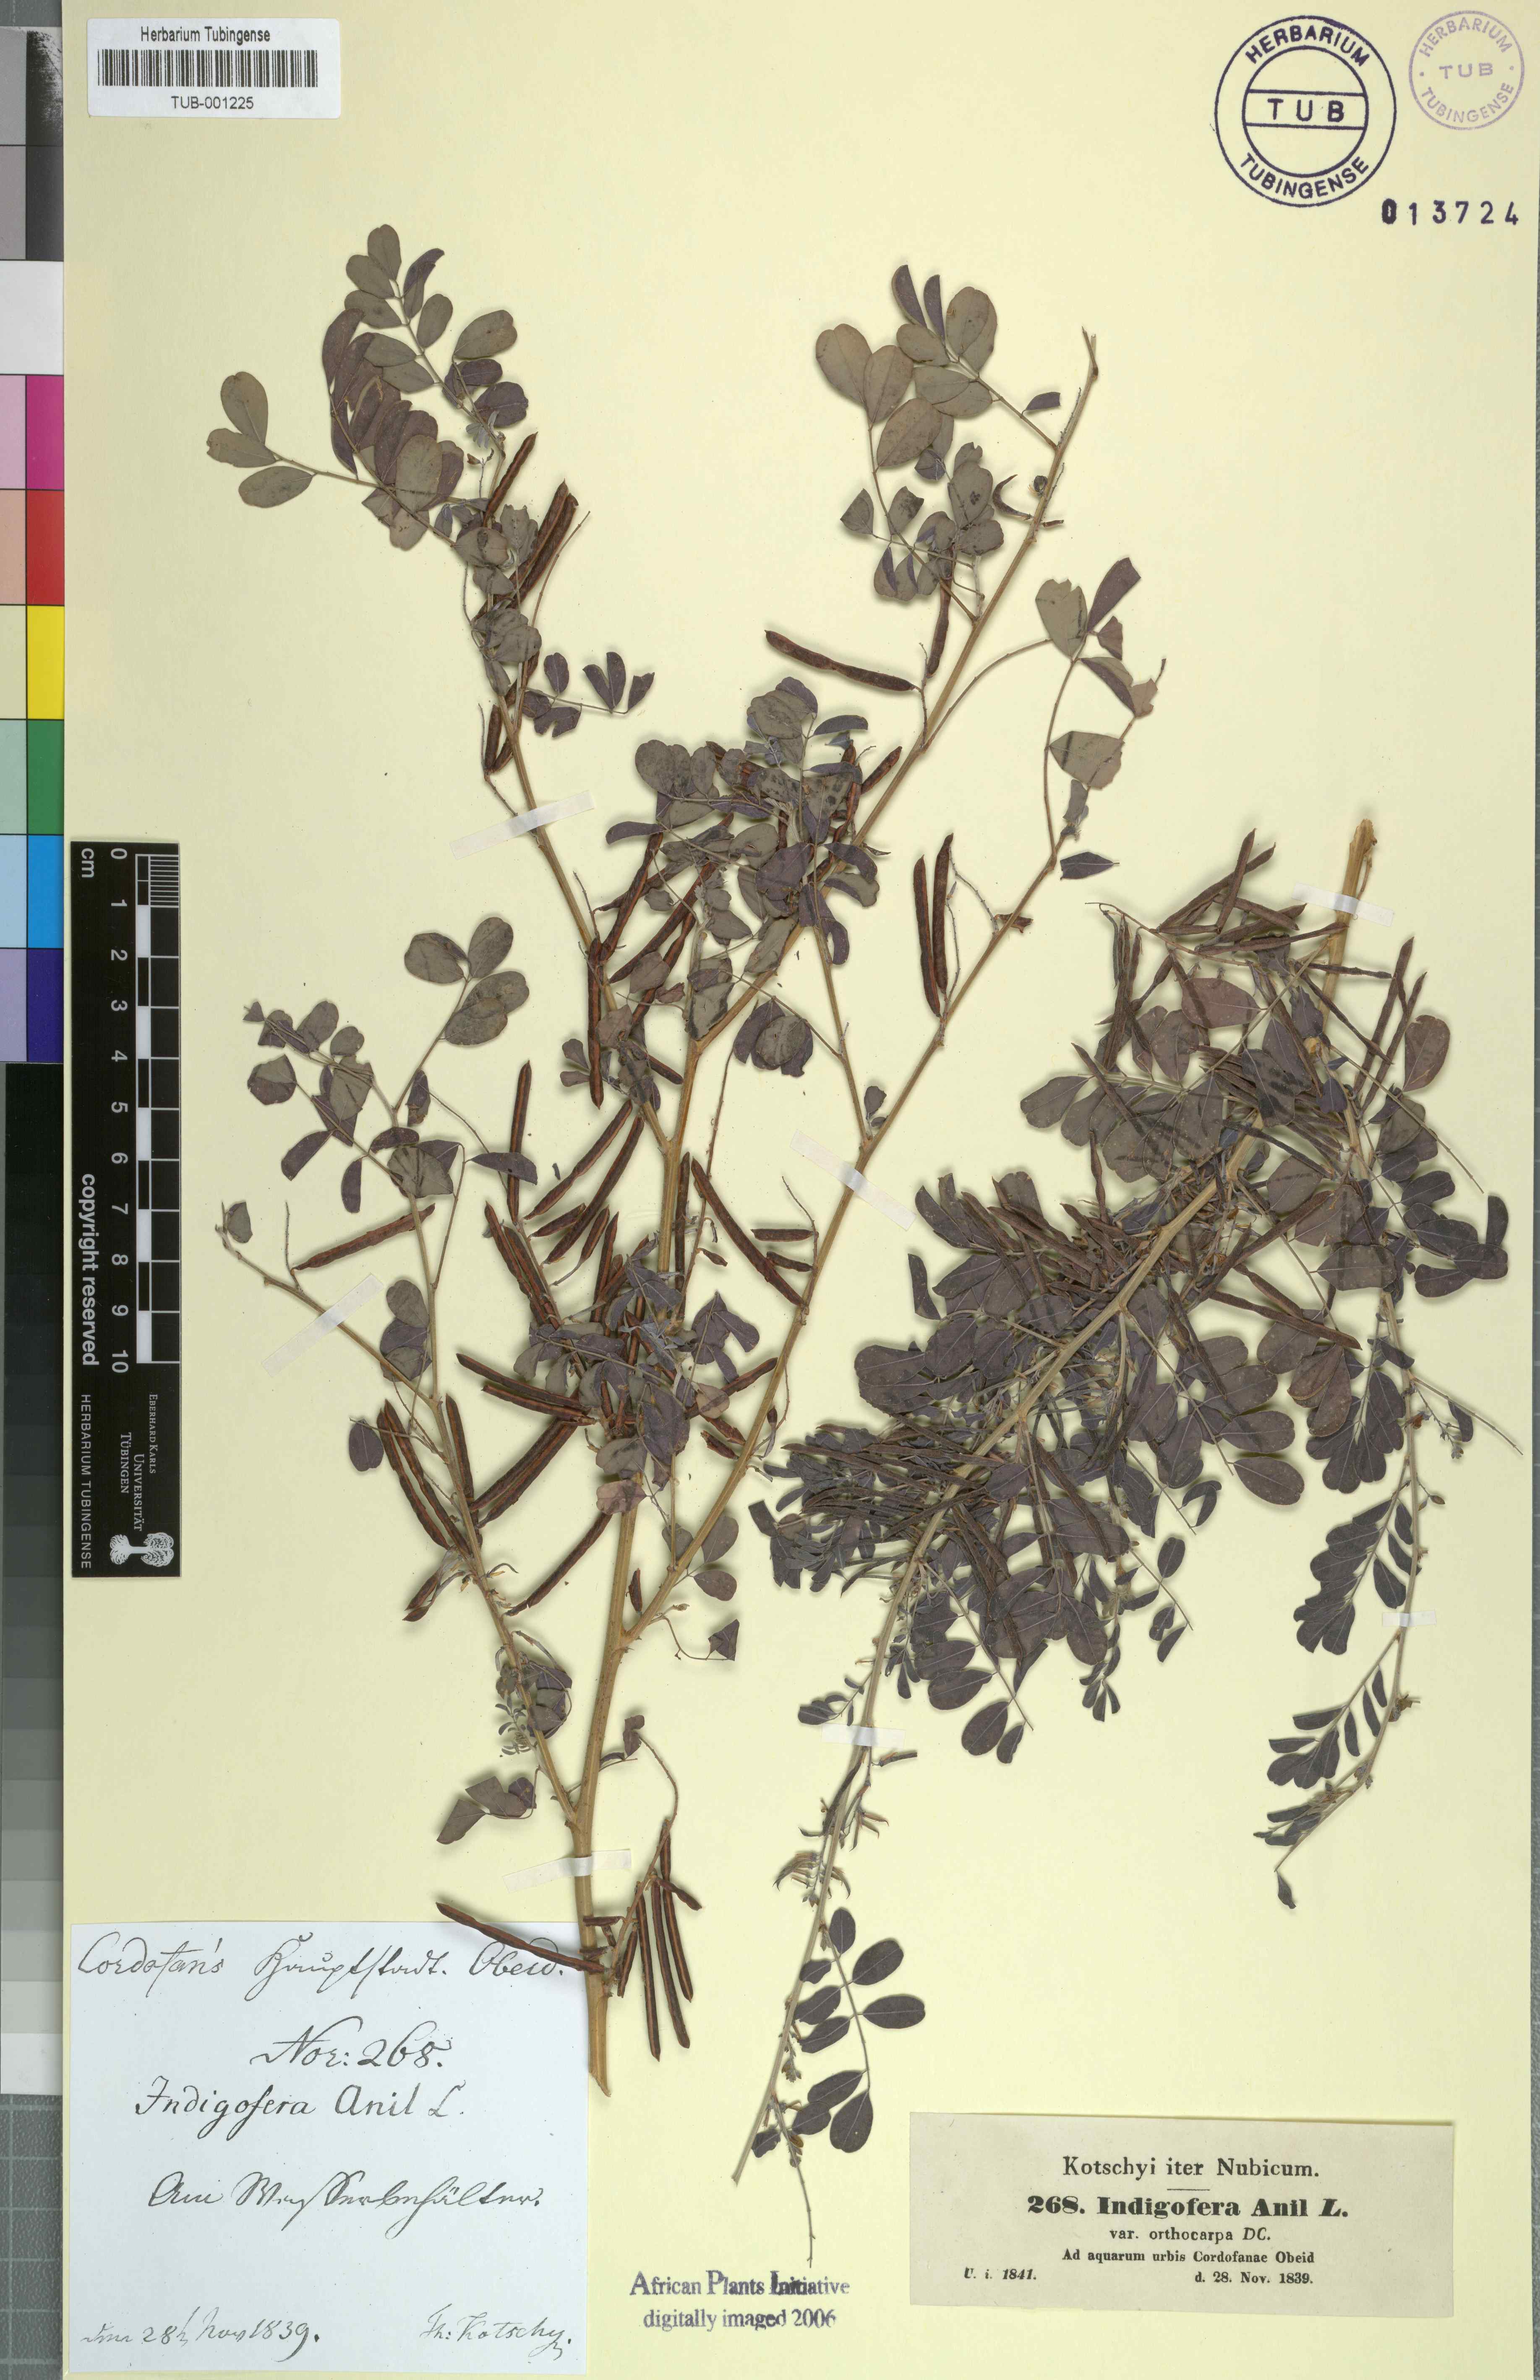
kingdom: Plantae
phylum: Tracheophyta
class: Magnoliopsida
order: Fabales
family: Fabaceae
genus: Indigofera
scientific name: Indigofera suffruticosa
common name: Anil de pasto
